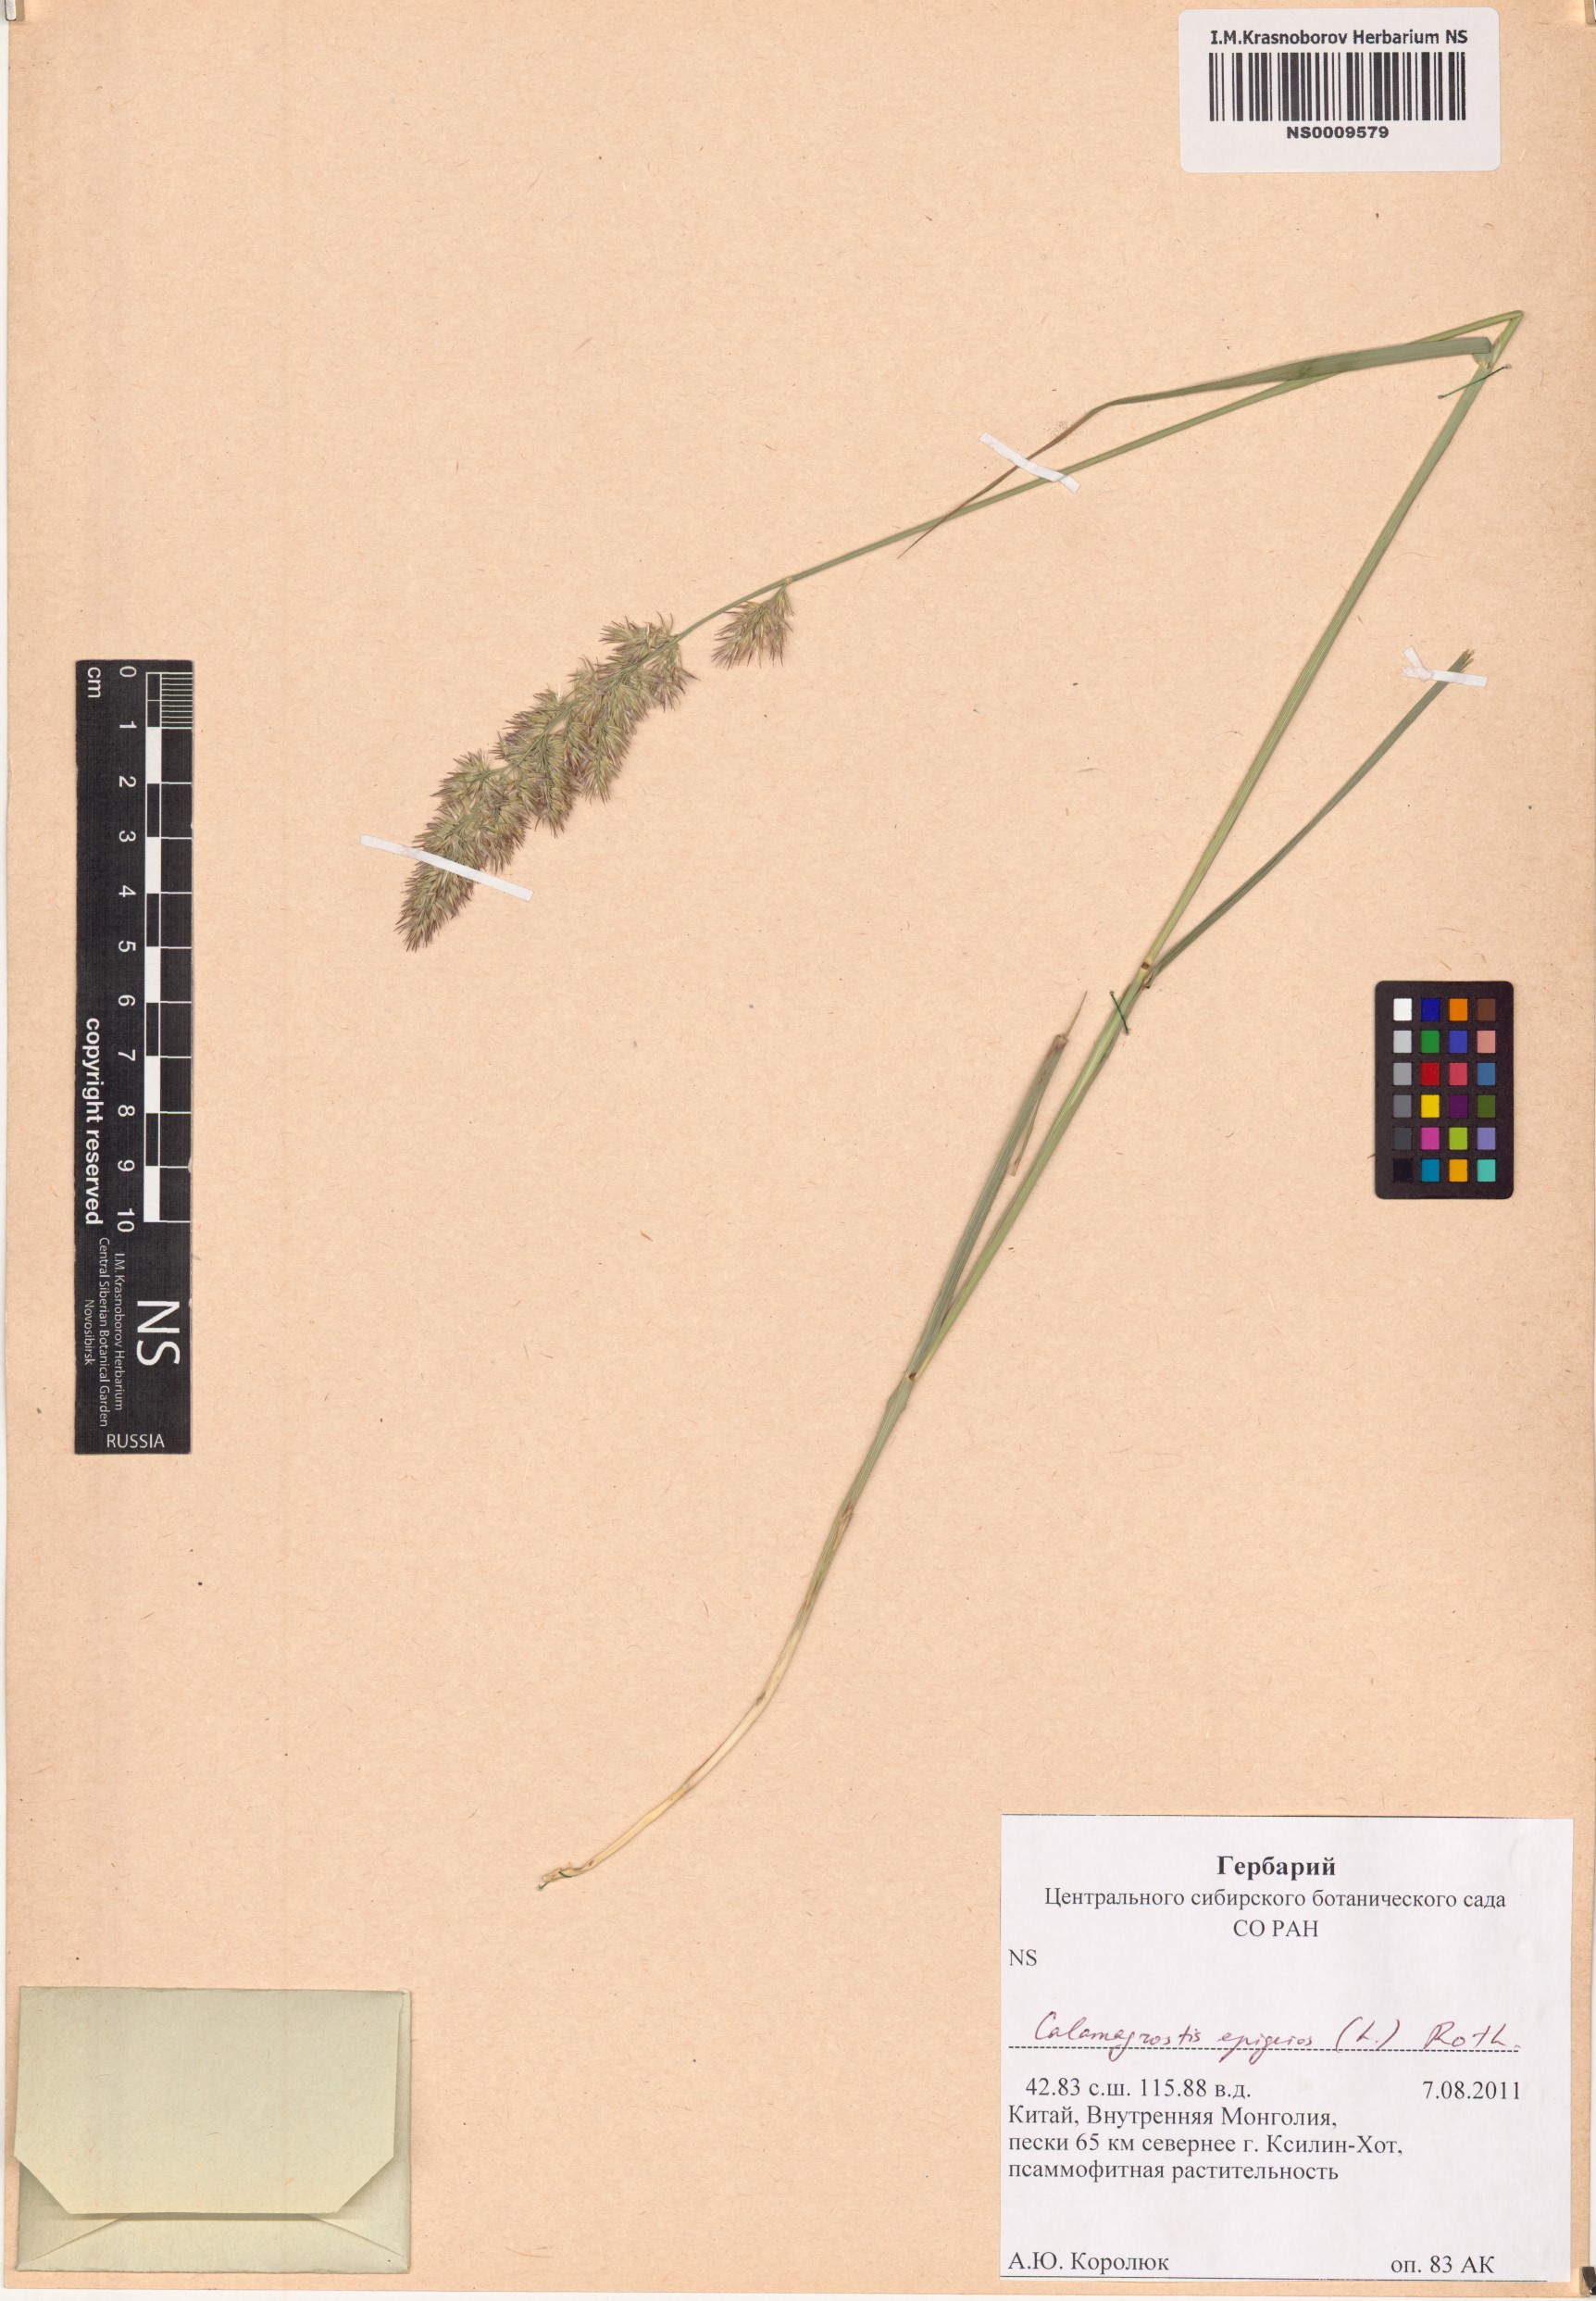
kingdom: Plantae
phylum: Tracheophyta
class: Liliopsida
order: Poales
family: Poaceae
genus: Calamagrostis
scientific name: Calamagrostis epigejos
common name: Wood small-reed
